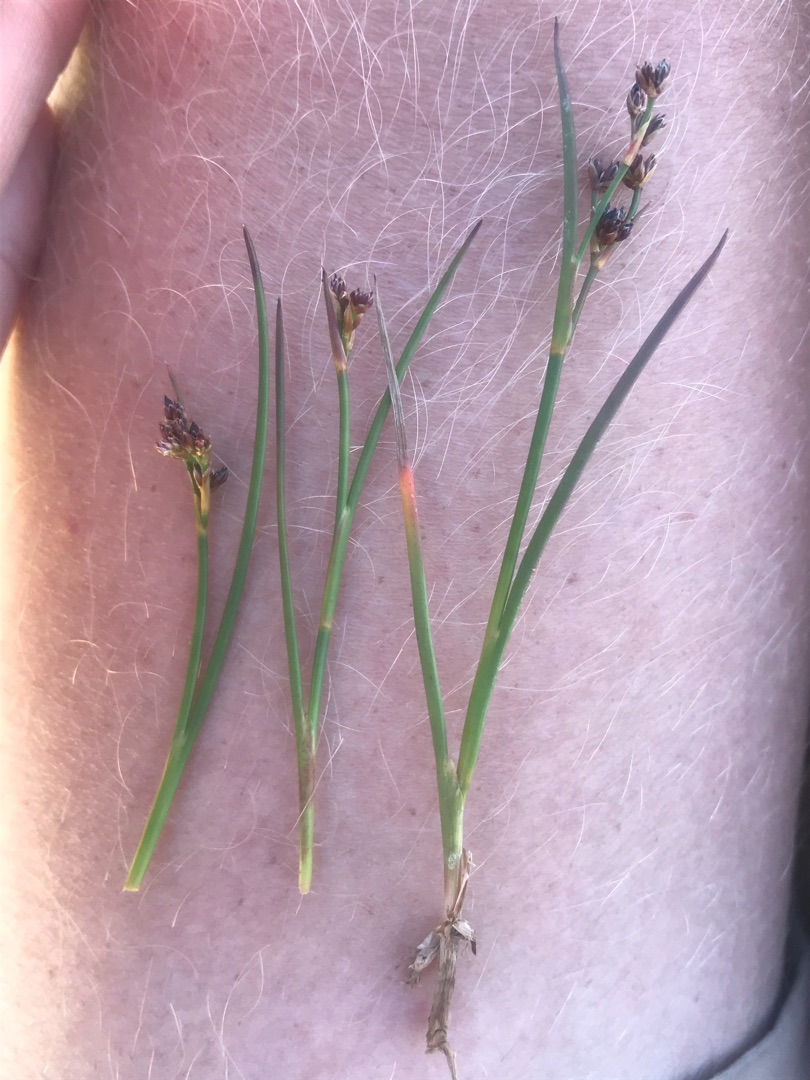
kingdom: Plantae
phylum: Tracheophyta
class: Liliopsida
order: Poales
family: Juncaceae
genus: Juncus
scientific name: Juncus articulatus
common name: Glanskapslet siv
